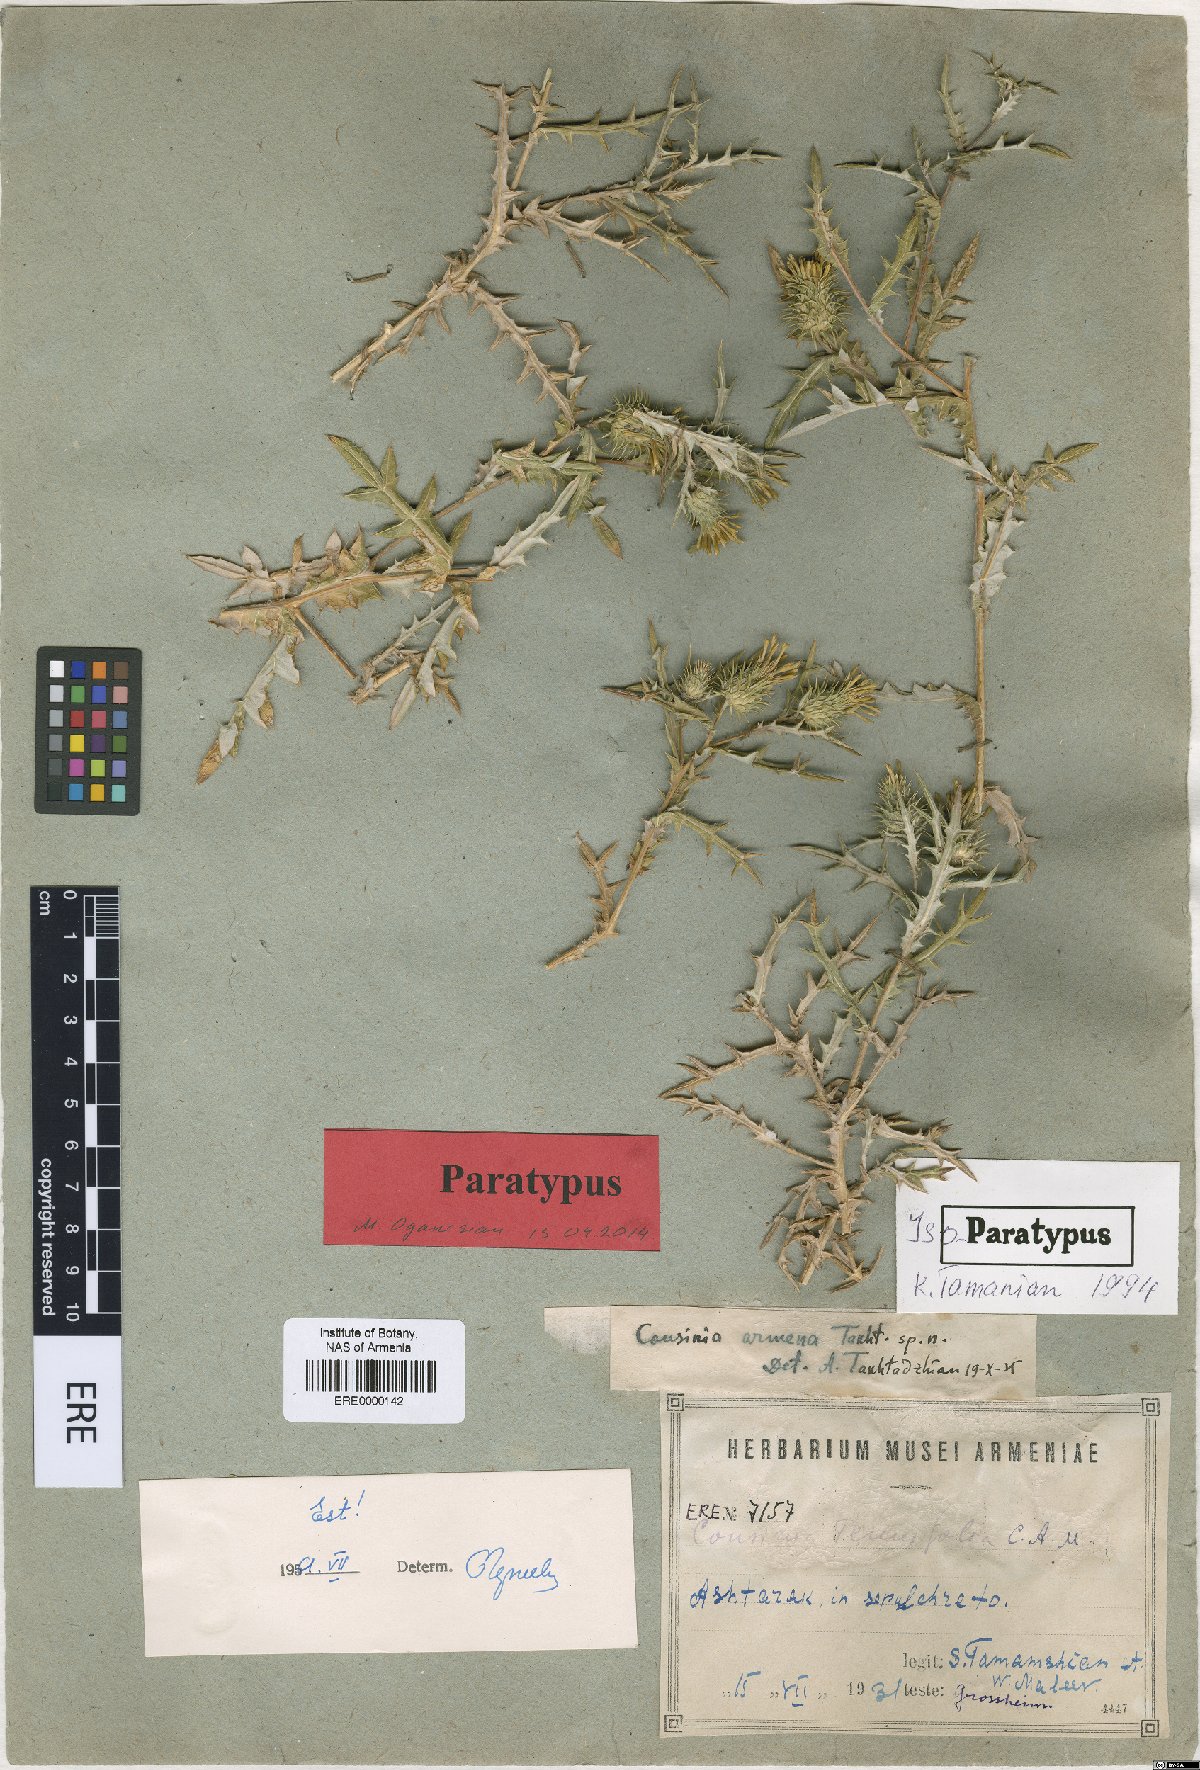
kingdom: Plantae
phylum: Tracheophyta
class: Magnoliopsida
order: Asterales
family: Asteraceae
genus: Cousinia
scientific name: Cousinia armena
